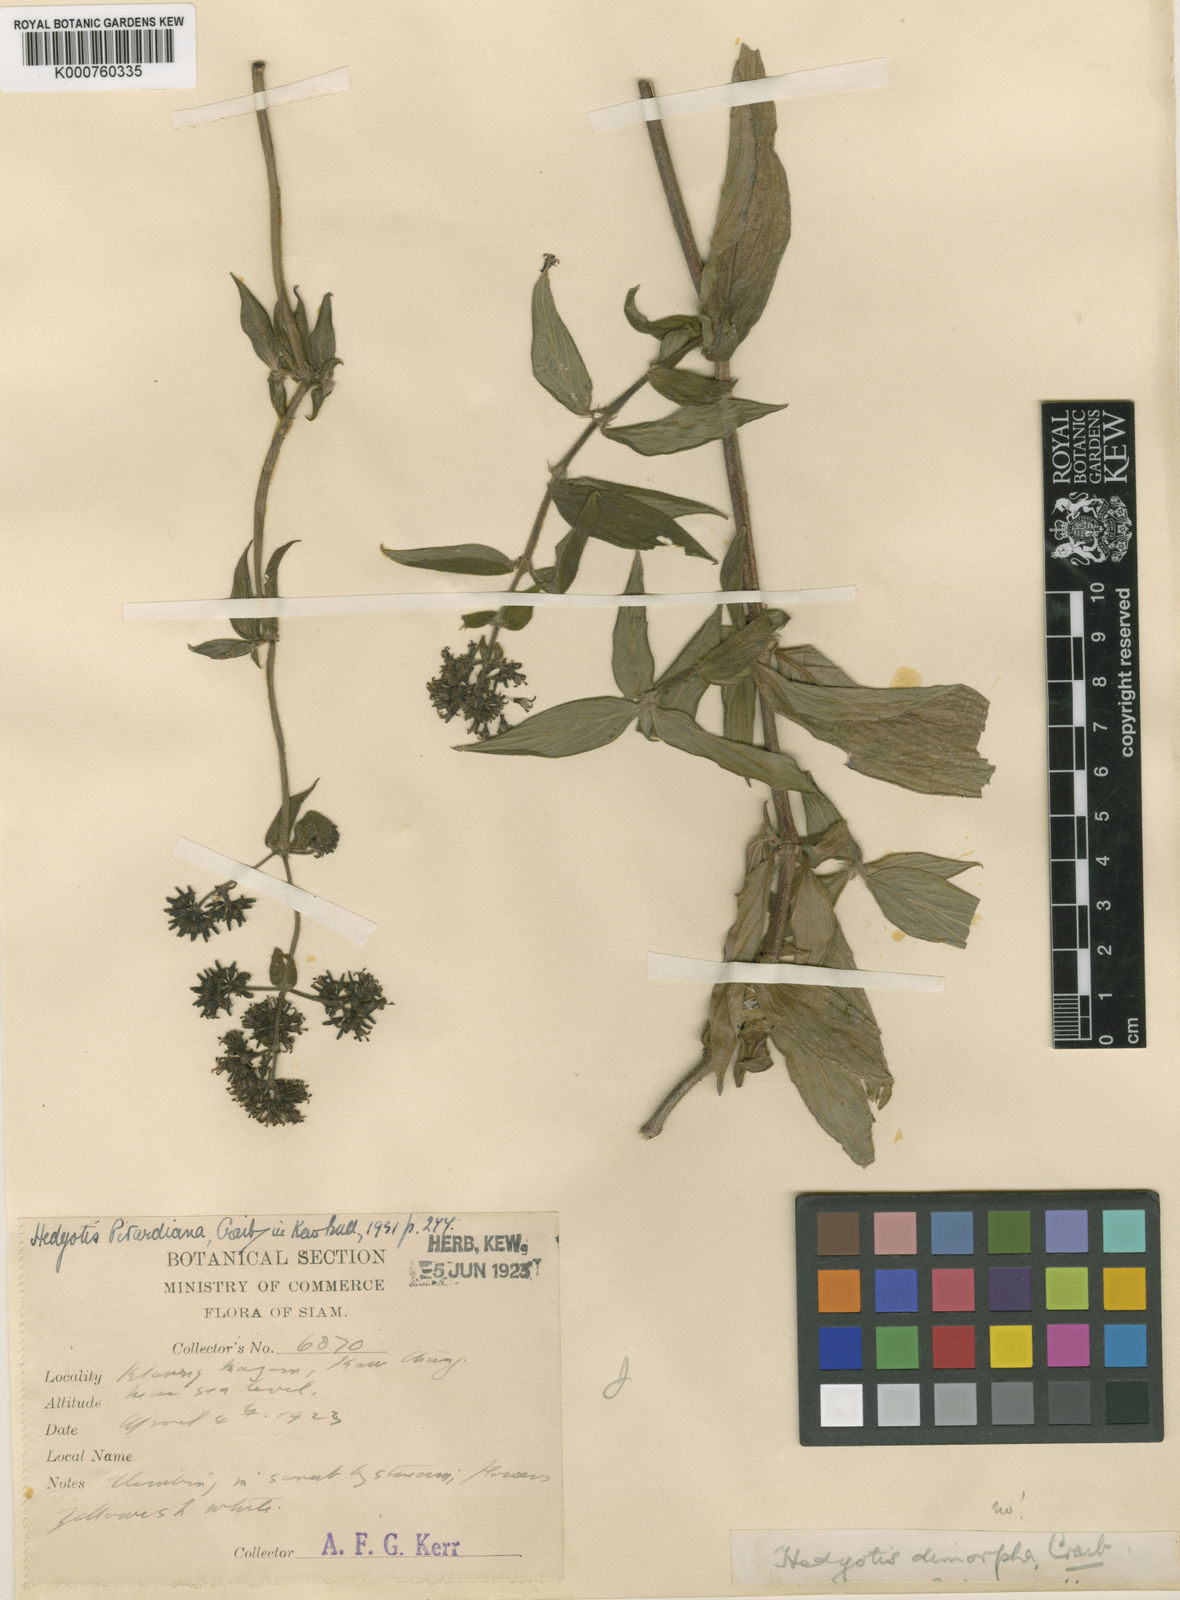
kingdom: Plantae
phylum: Tracheophyta
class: Magnoliopsida
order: Gentianales
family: Rubiaceae
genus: Dimetia
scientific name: Dimetia hedyotidea
